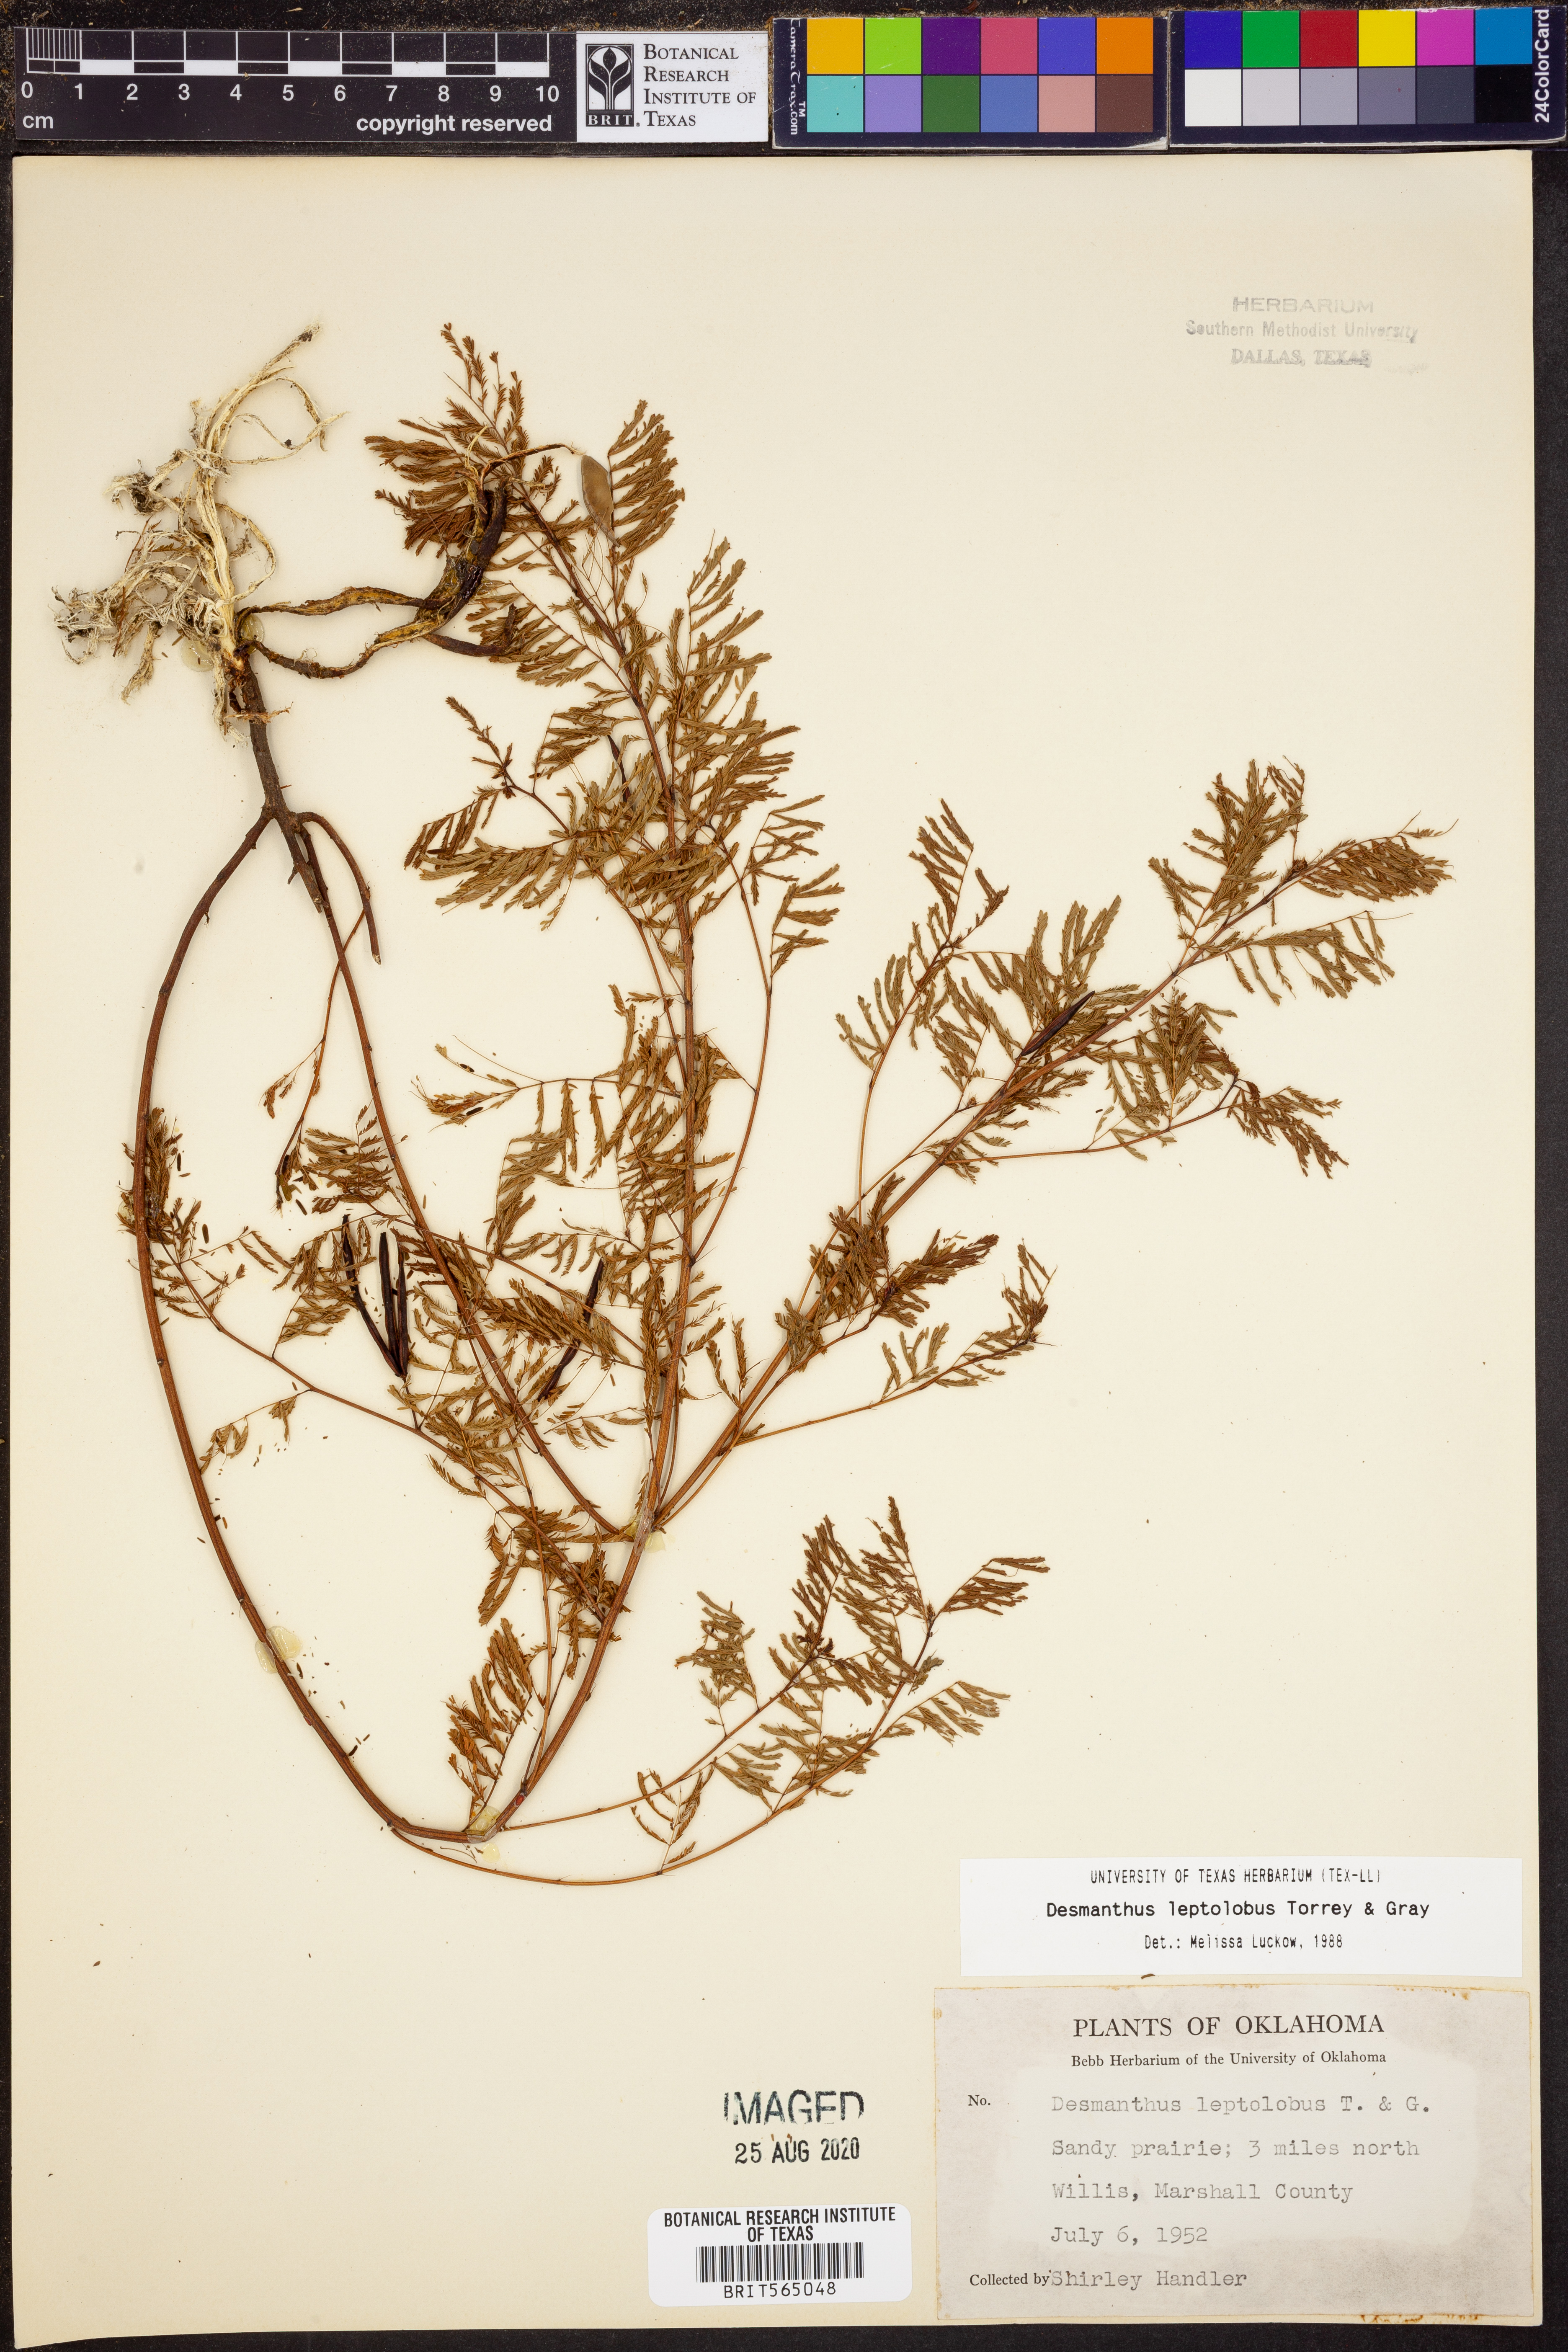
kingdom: Plantae
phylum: Tracheophyta
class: Magnoliopsida
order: Fabales
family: Fabaceae
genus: Desmanthus
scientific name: Desmanthus leptolobus
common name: Prairie-mimosa
